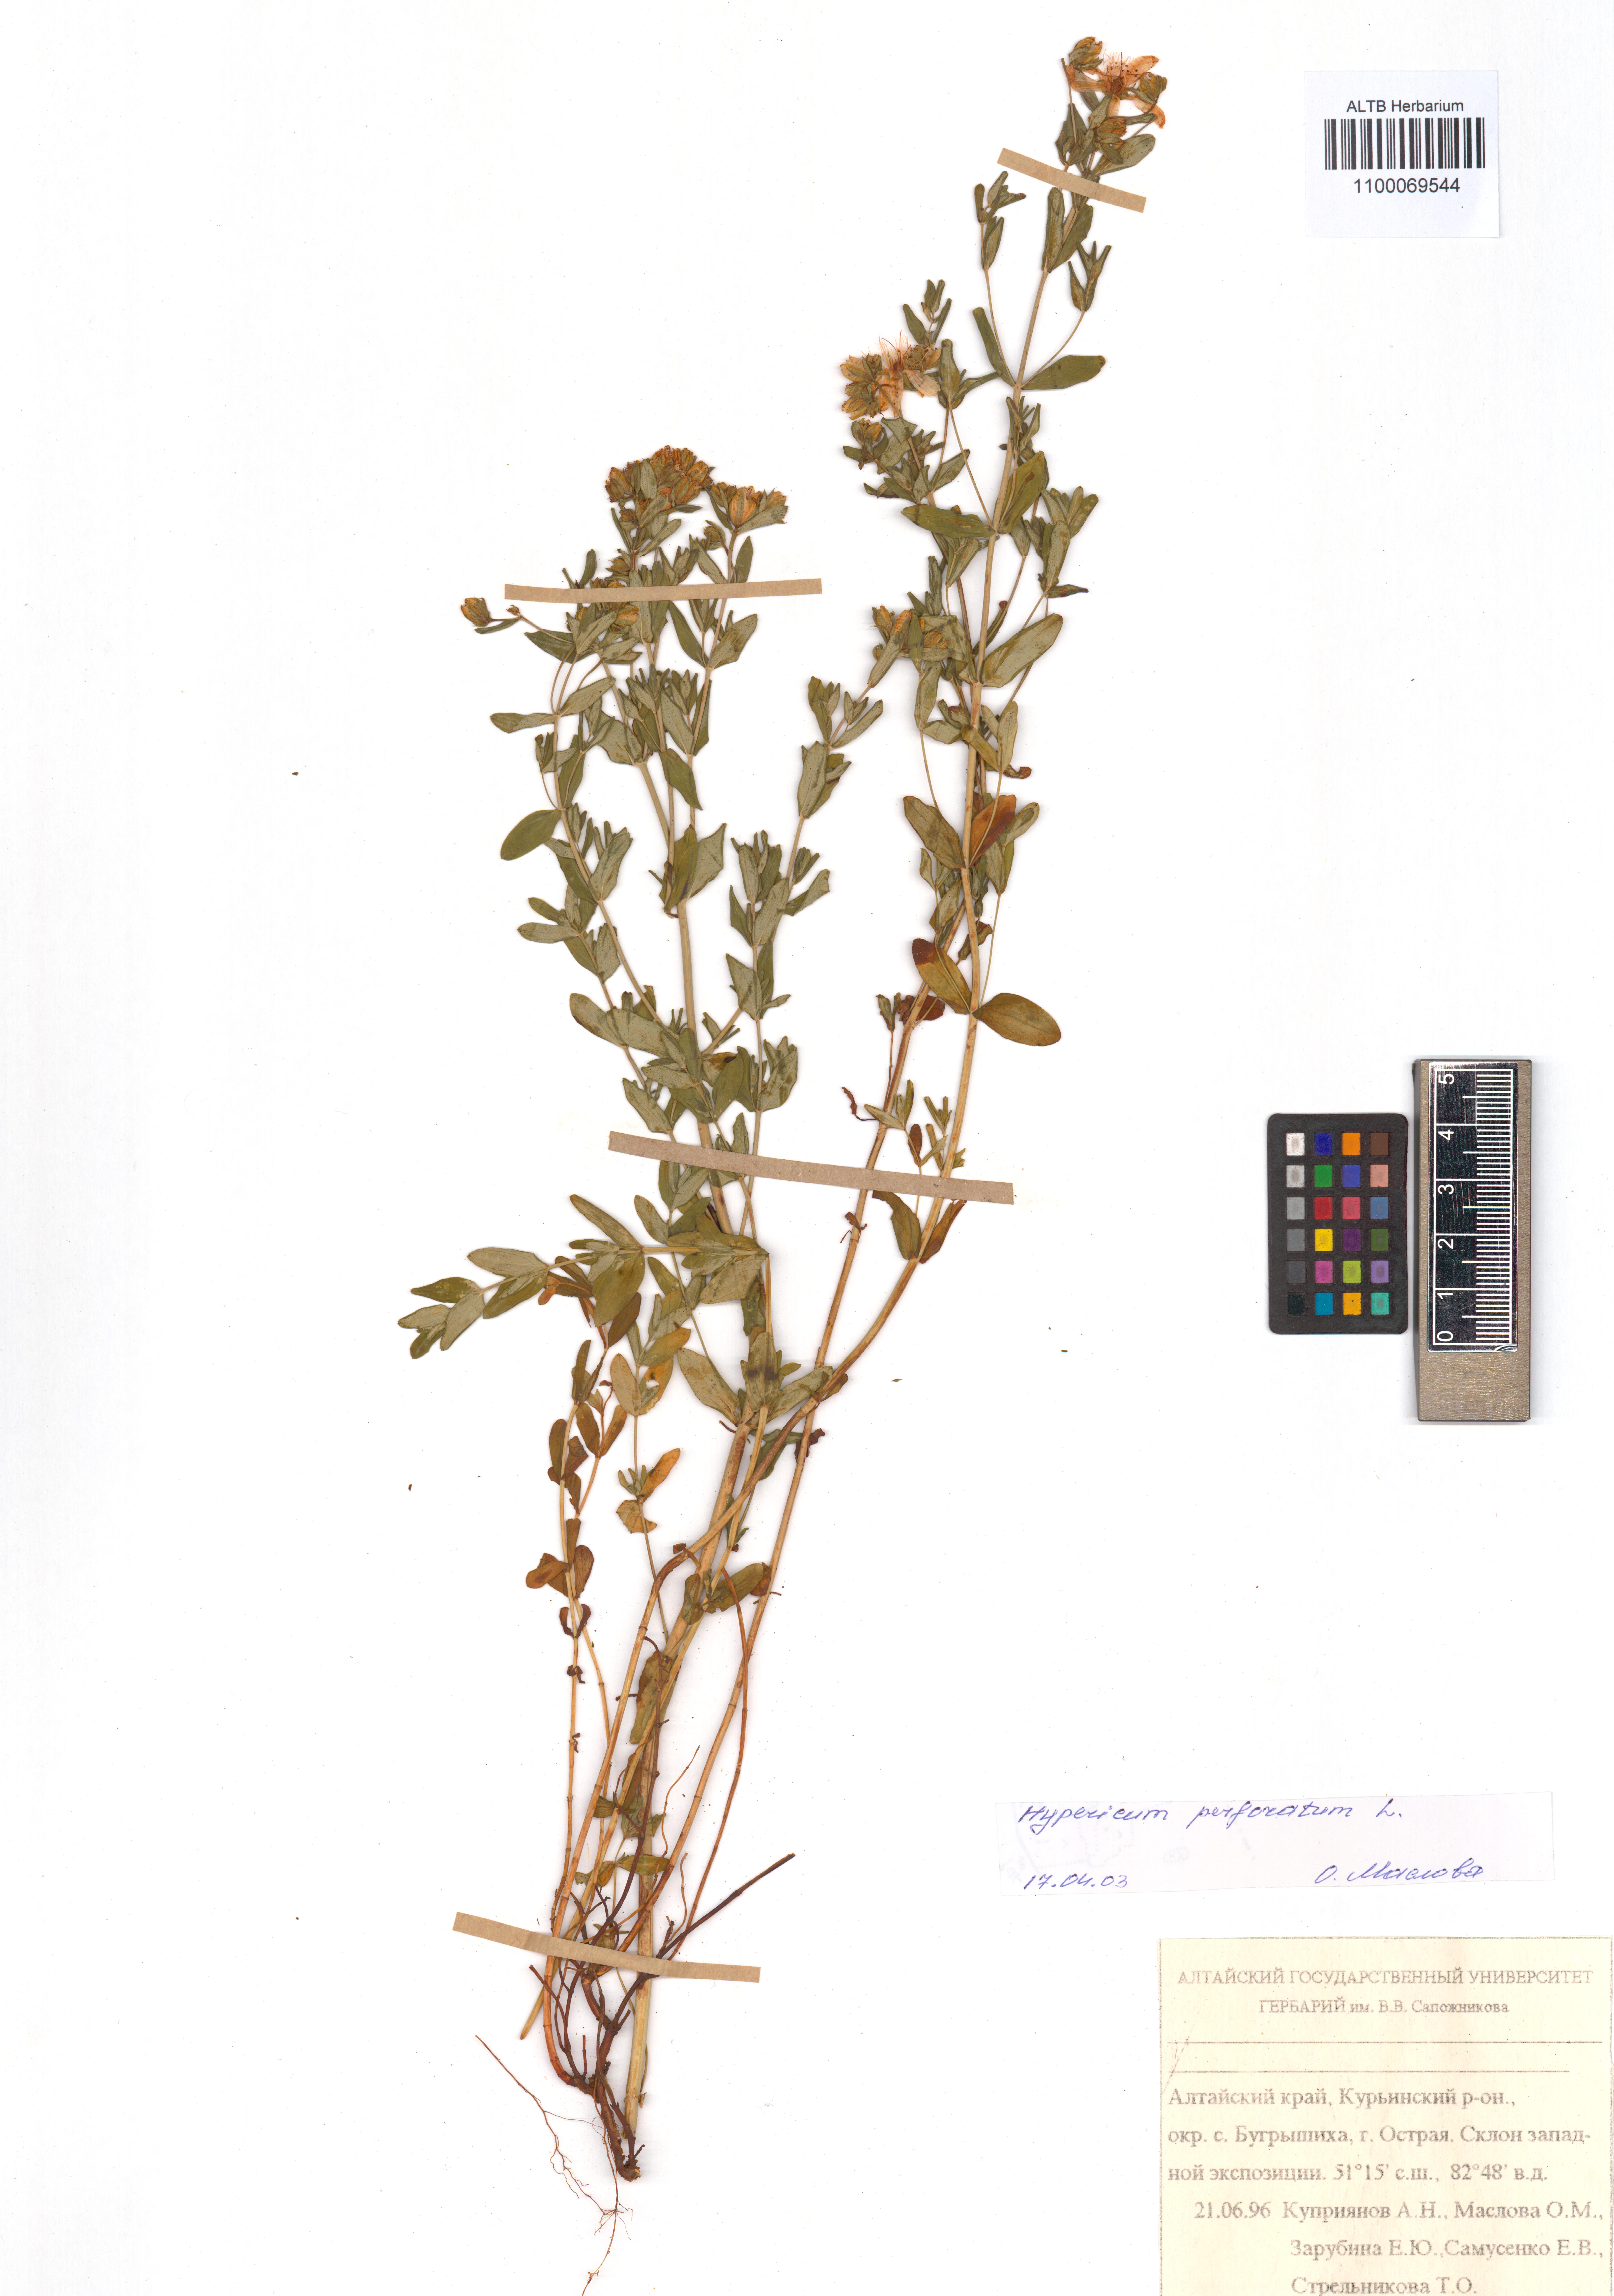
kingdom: Plantae
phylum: Tracheophyta
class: Magnoliopsida
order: Malpighiales
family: Hypericaceae
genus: Hypericum
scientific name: Hypericum perforatum
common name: Common st. johnswort
